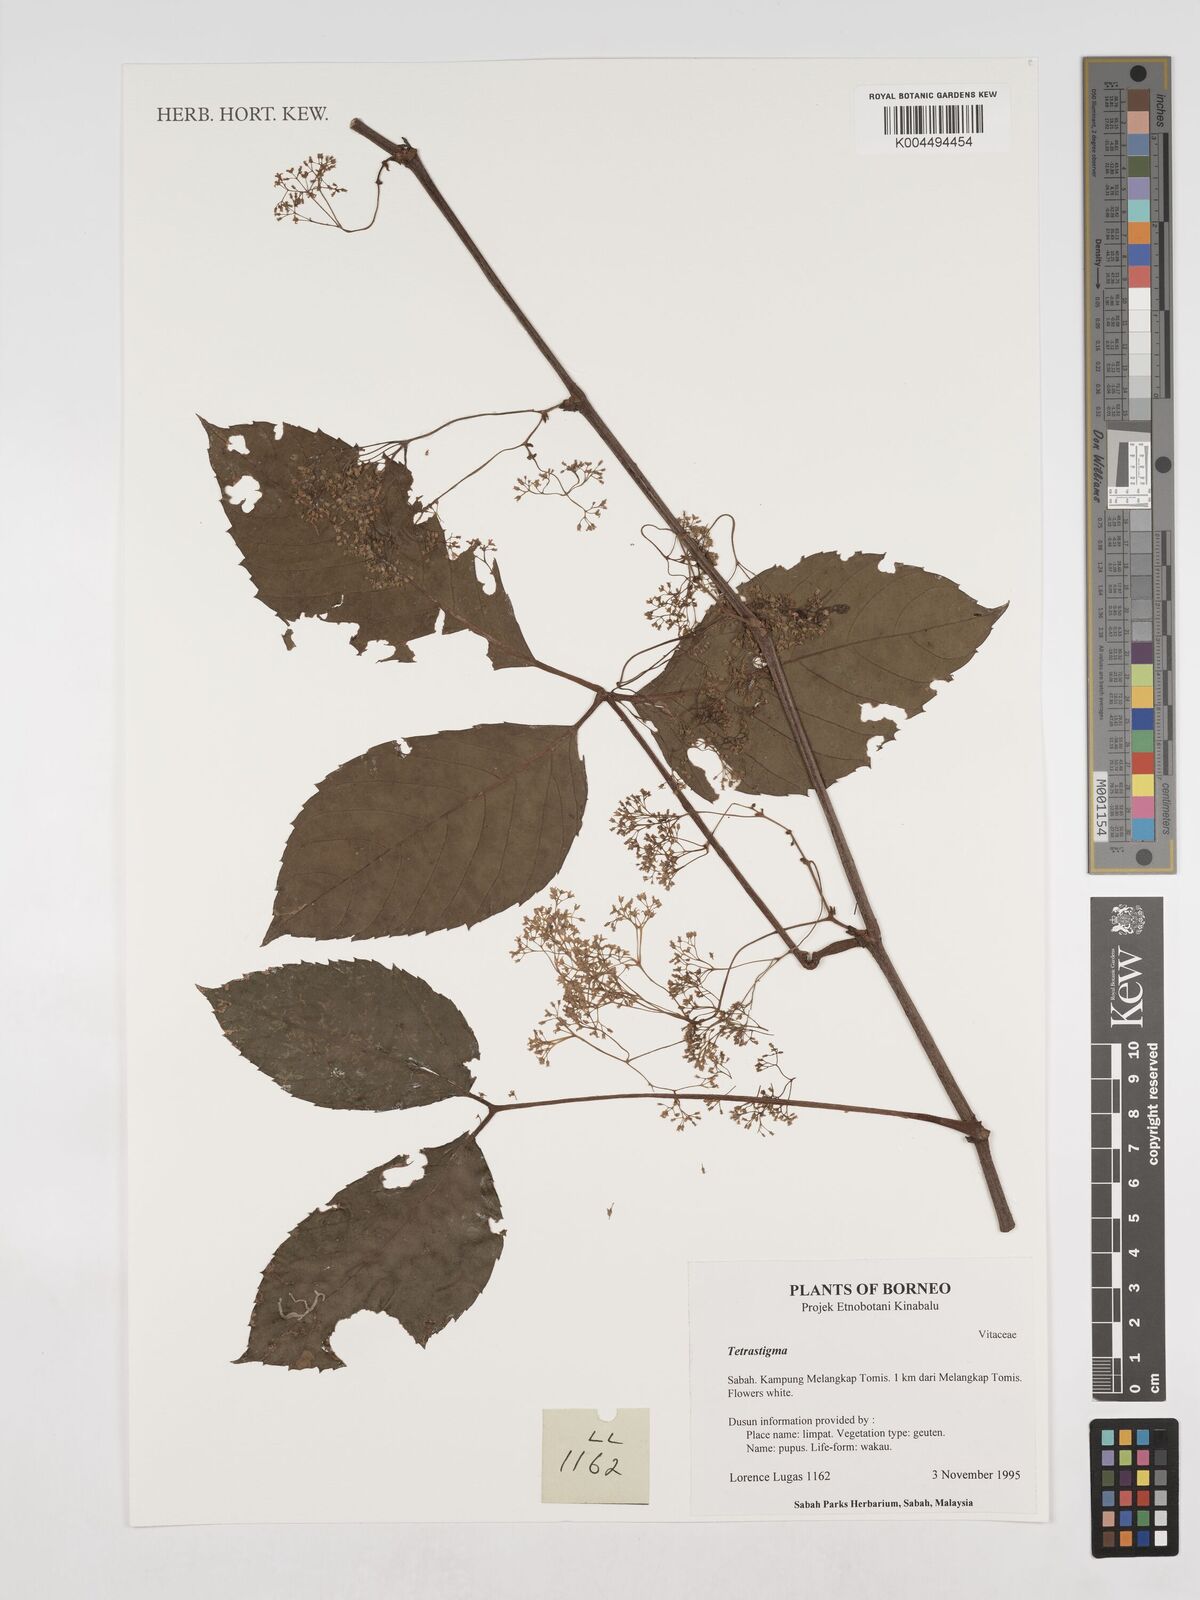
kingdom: Plantae
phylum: Tracheophyta
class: Magnoliopsida
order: Vitales
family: Vitaceae
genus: Tetrastigma
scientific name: Tetrastigma
